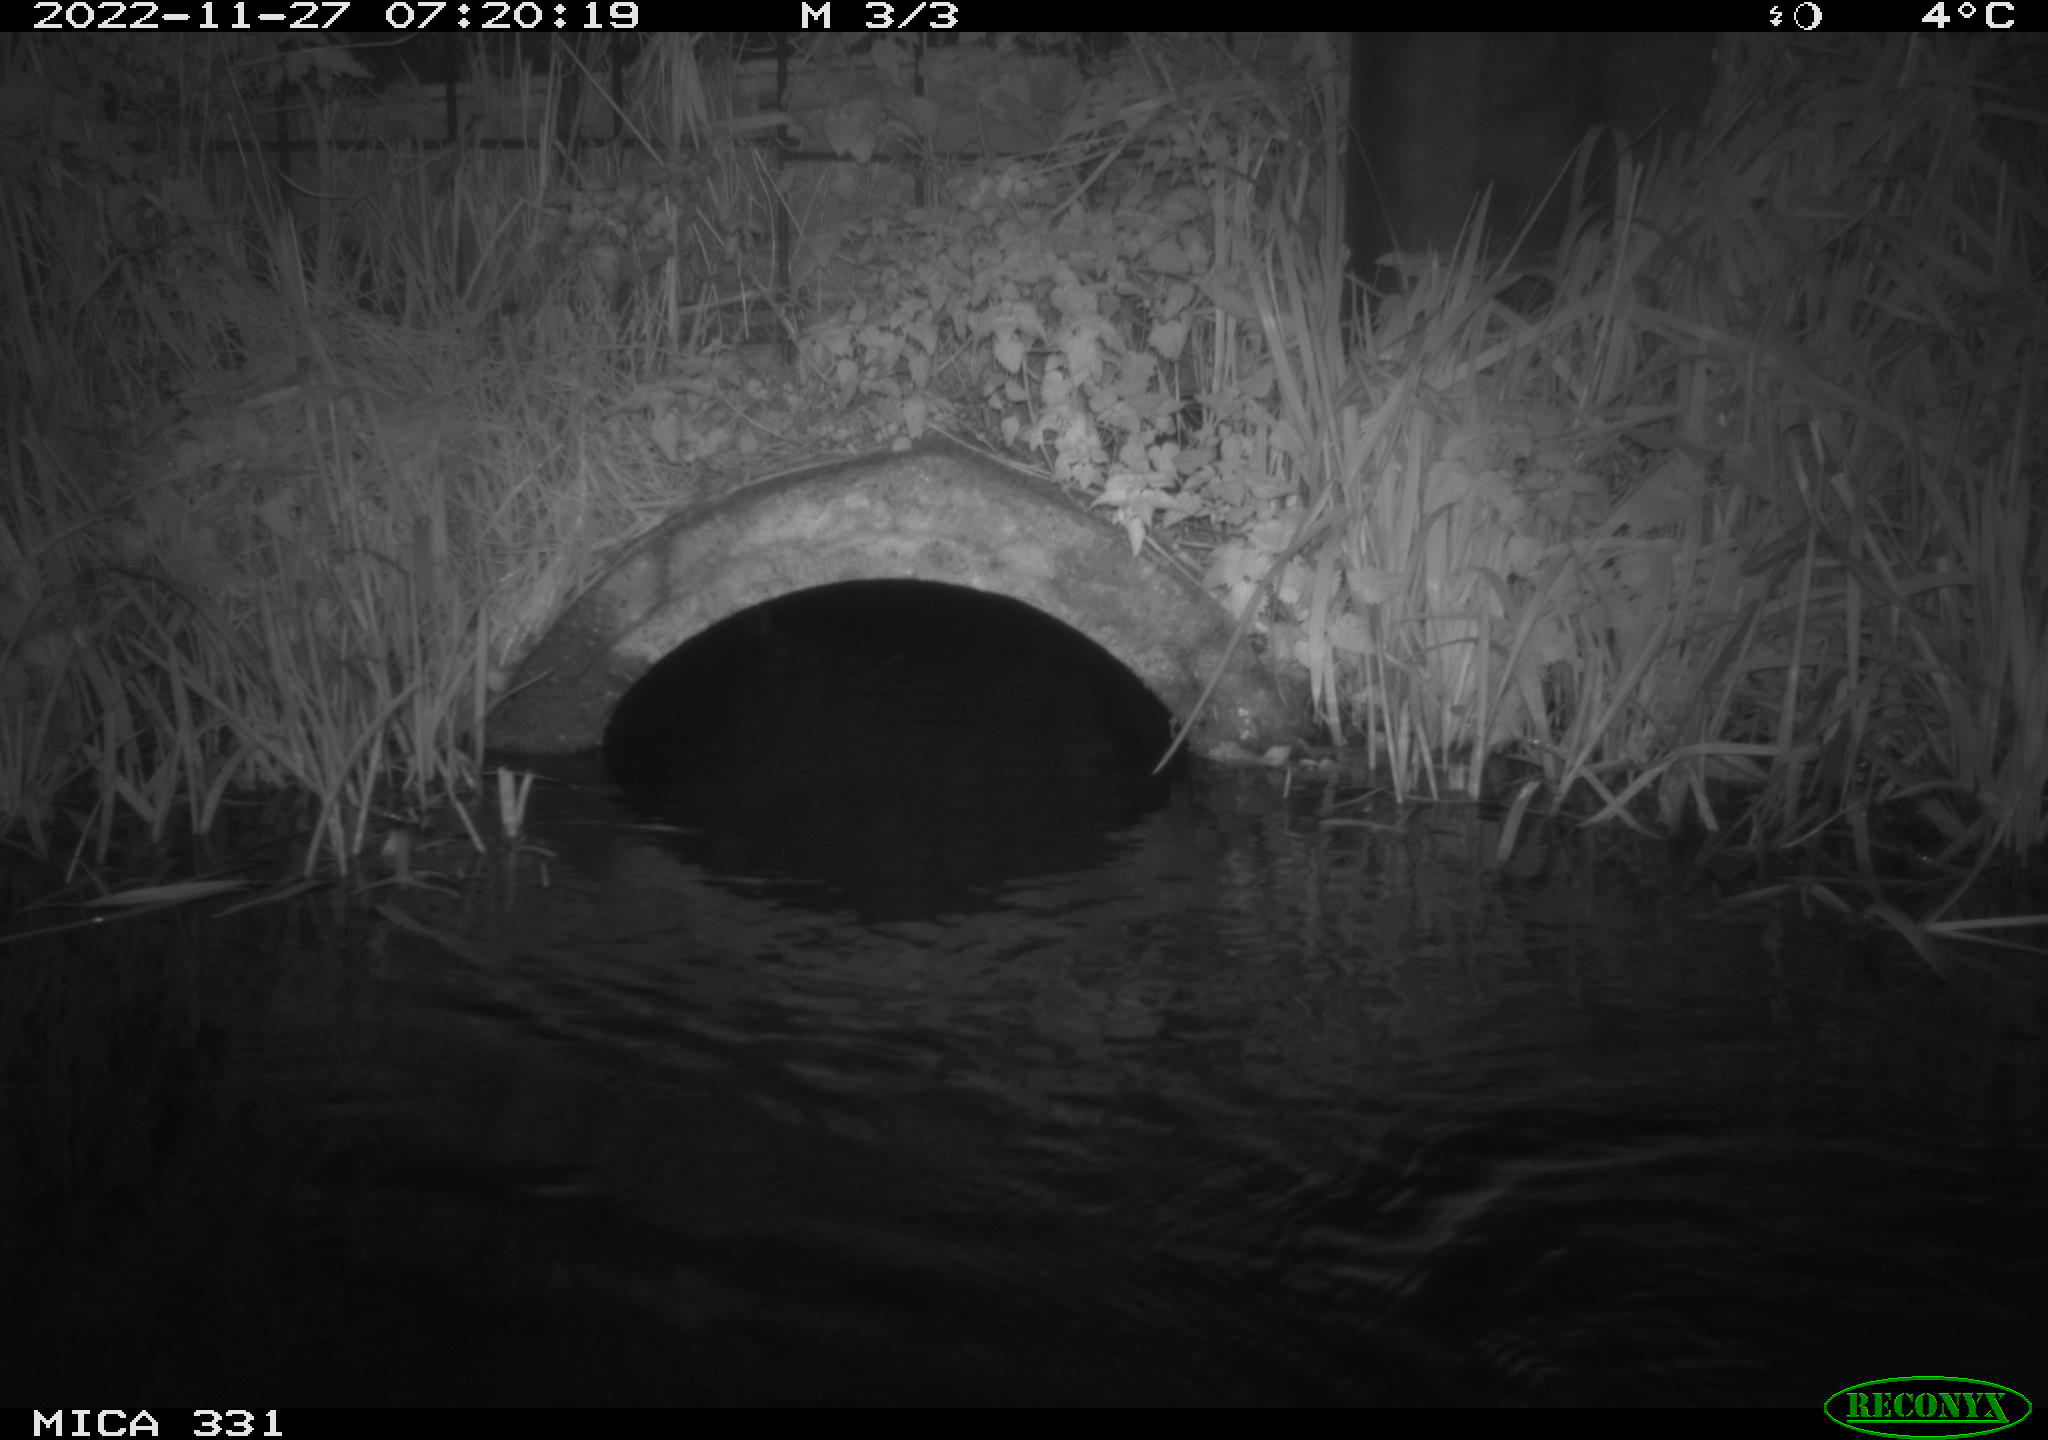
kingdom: Animalia
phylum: Chordata
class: Mammalia
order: Rodentia
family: Muridae
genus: Rattus
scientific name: Rattus norvegicus
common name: Brown rat
